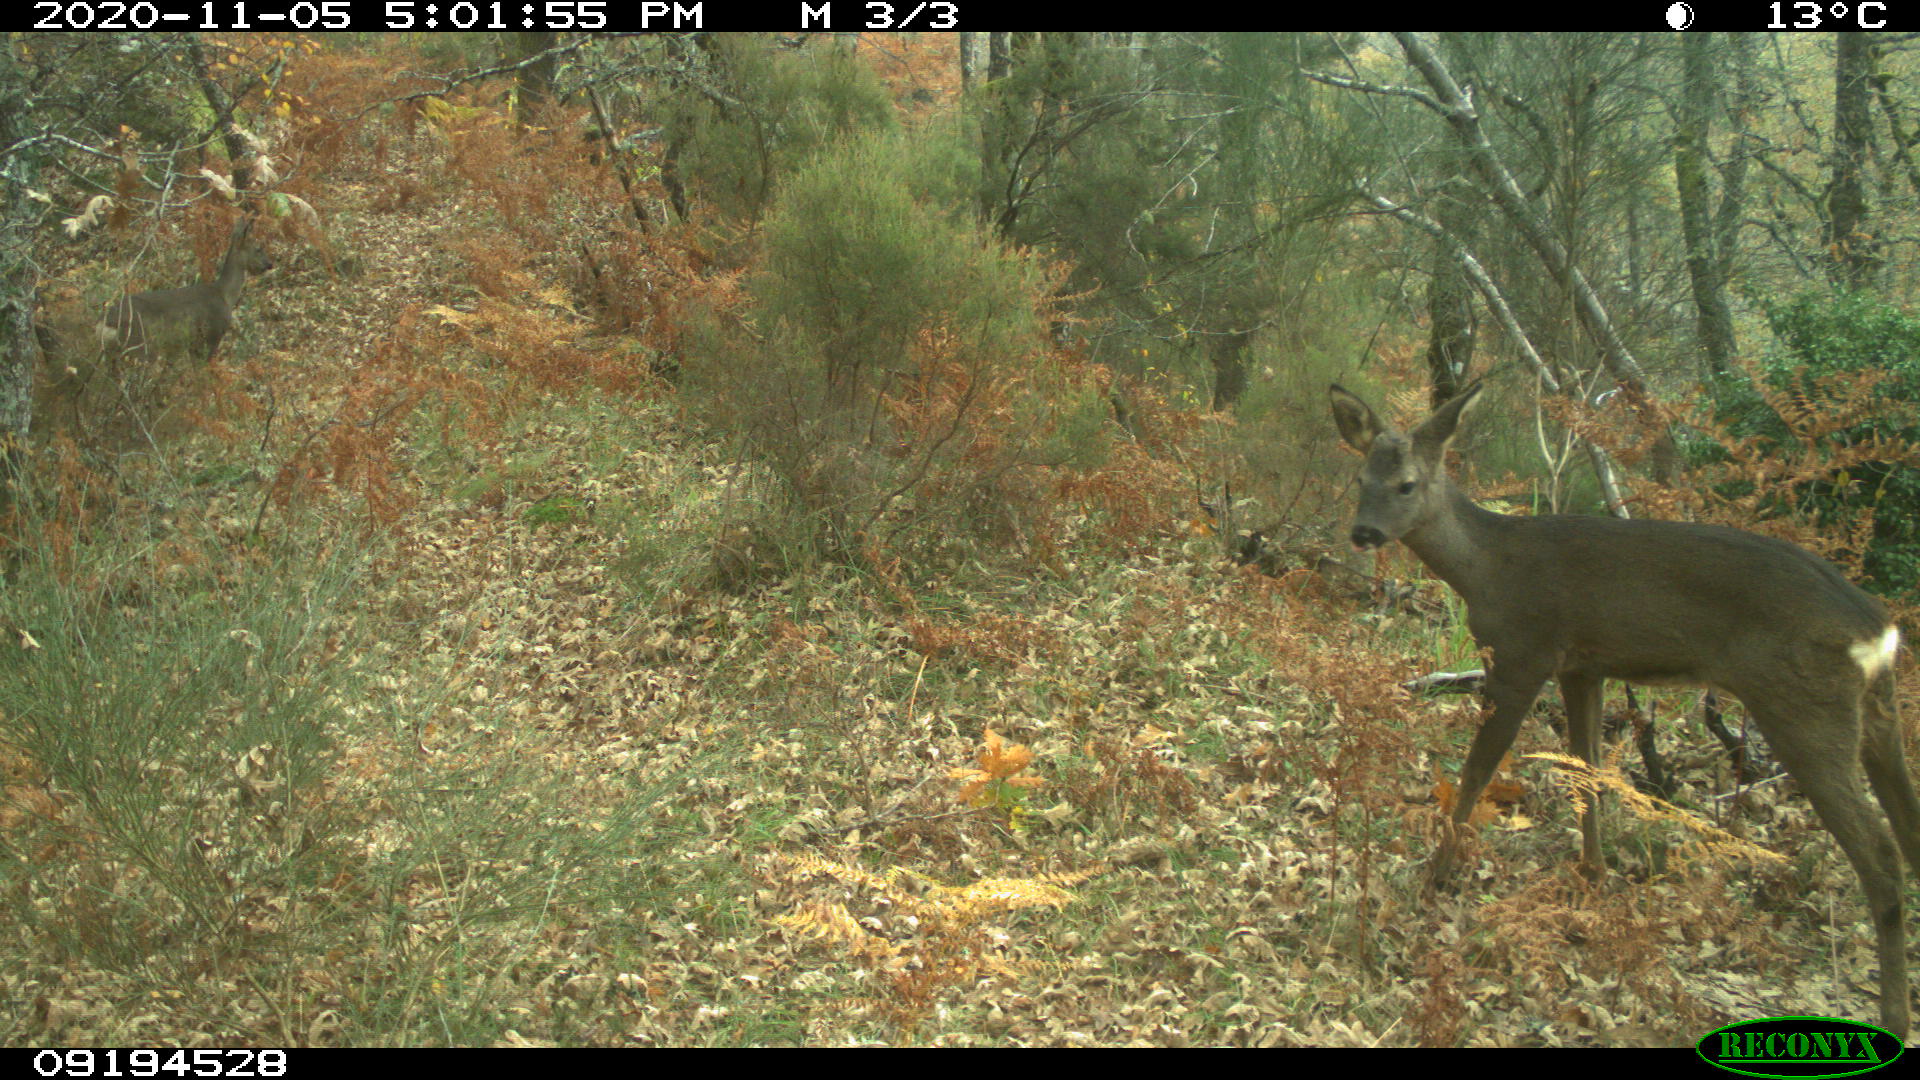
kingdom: Animalia
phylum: Chordata
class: Mammalia
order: Artiodactyla
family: Cervidae
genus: Capreolus
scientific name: Capreolus capreolus
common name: Western roe deer
